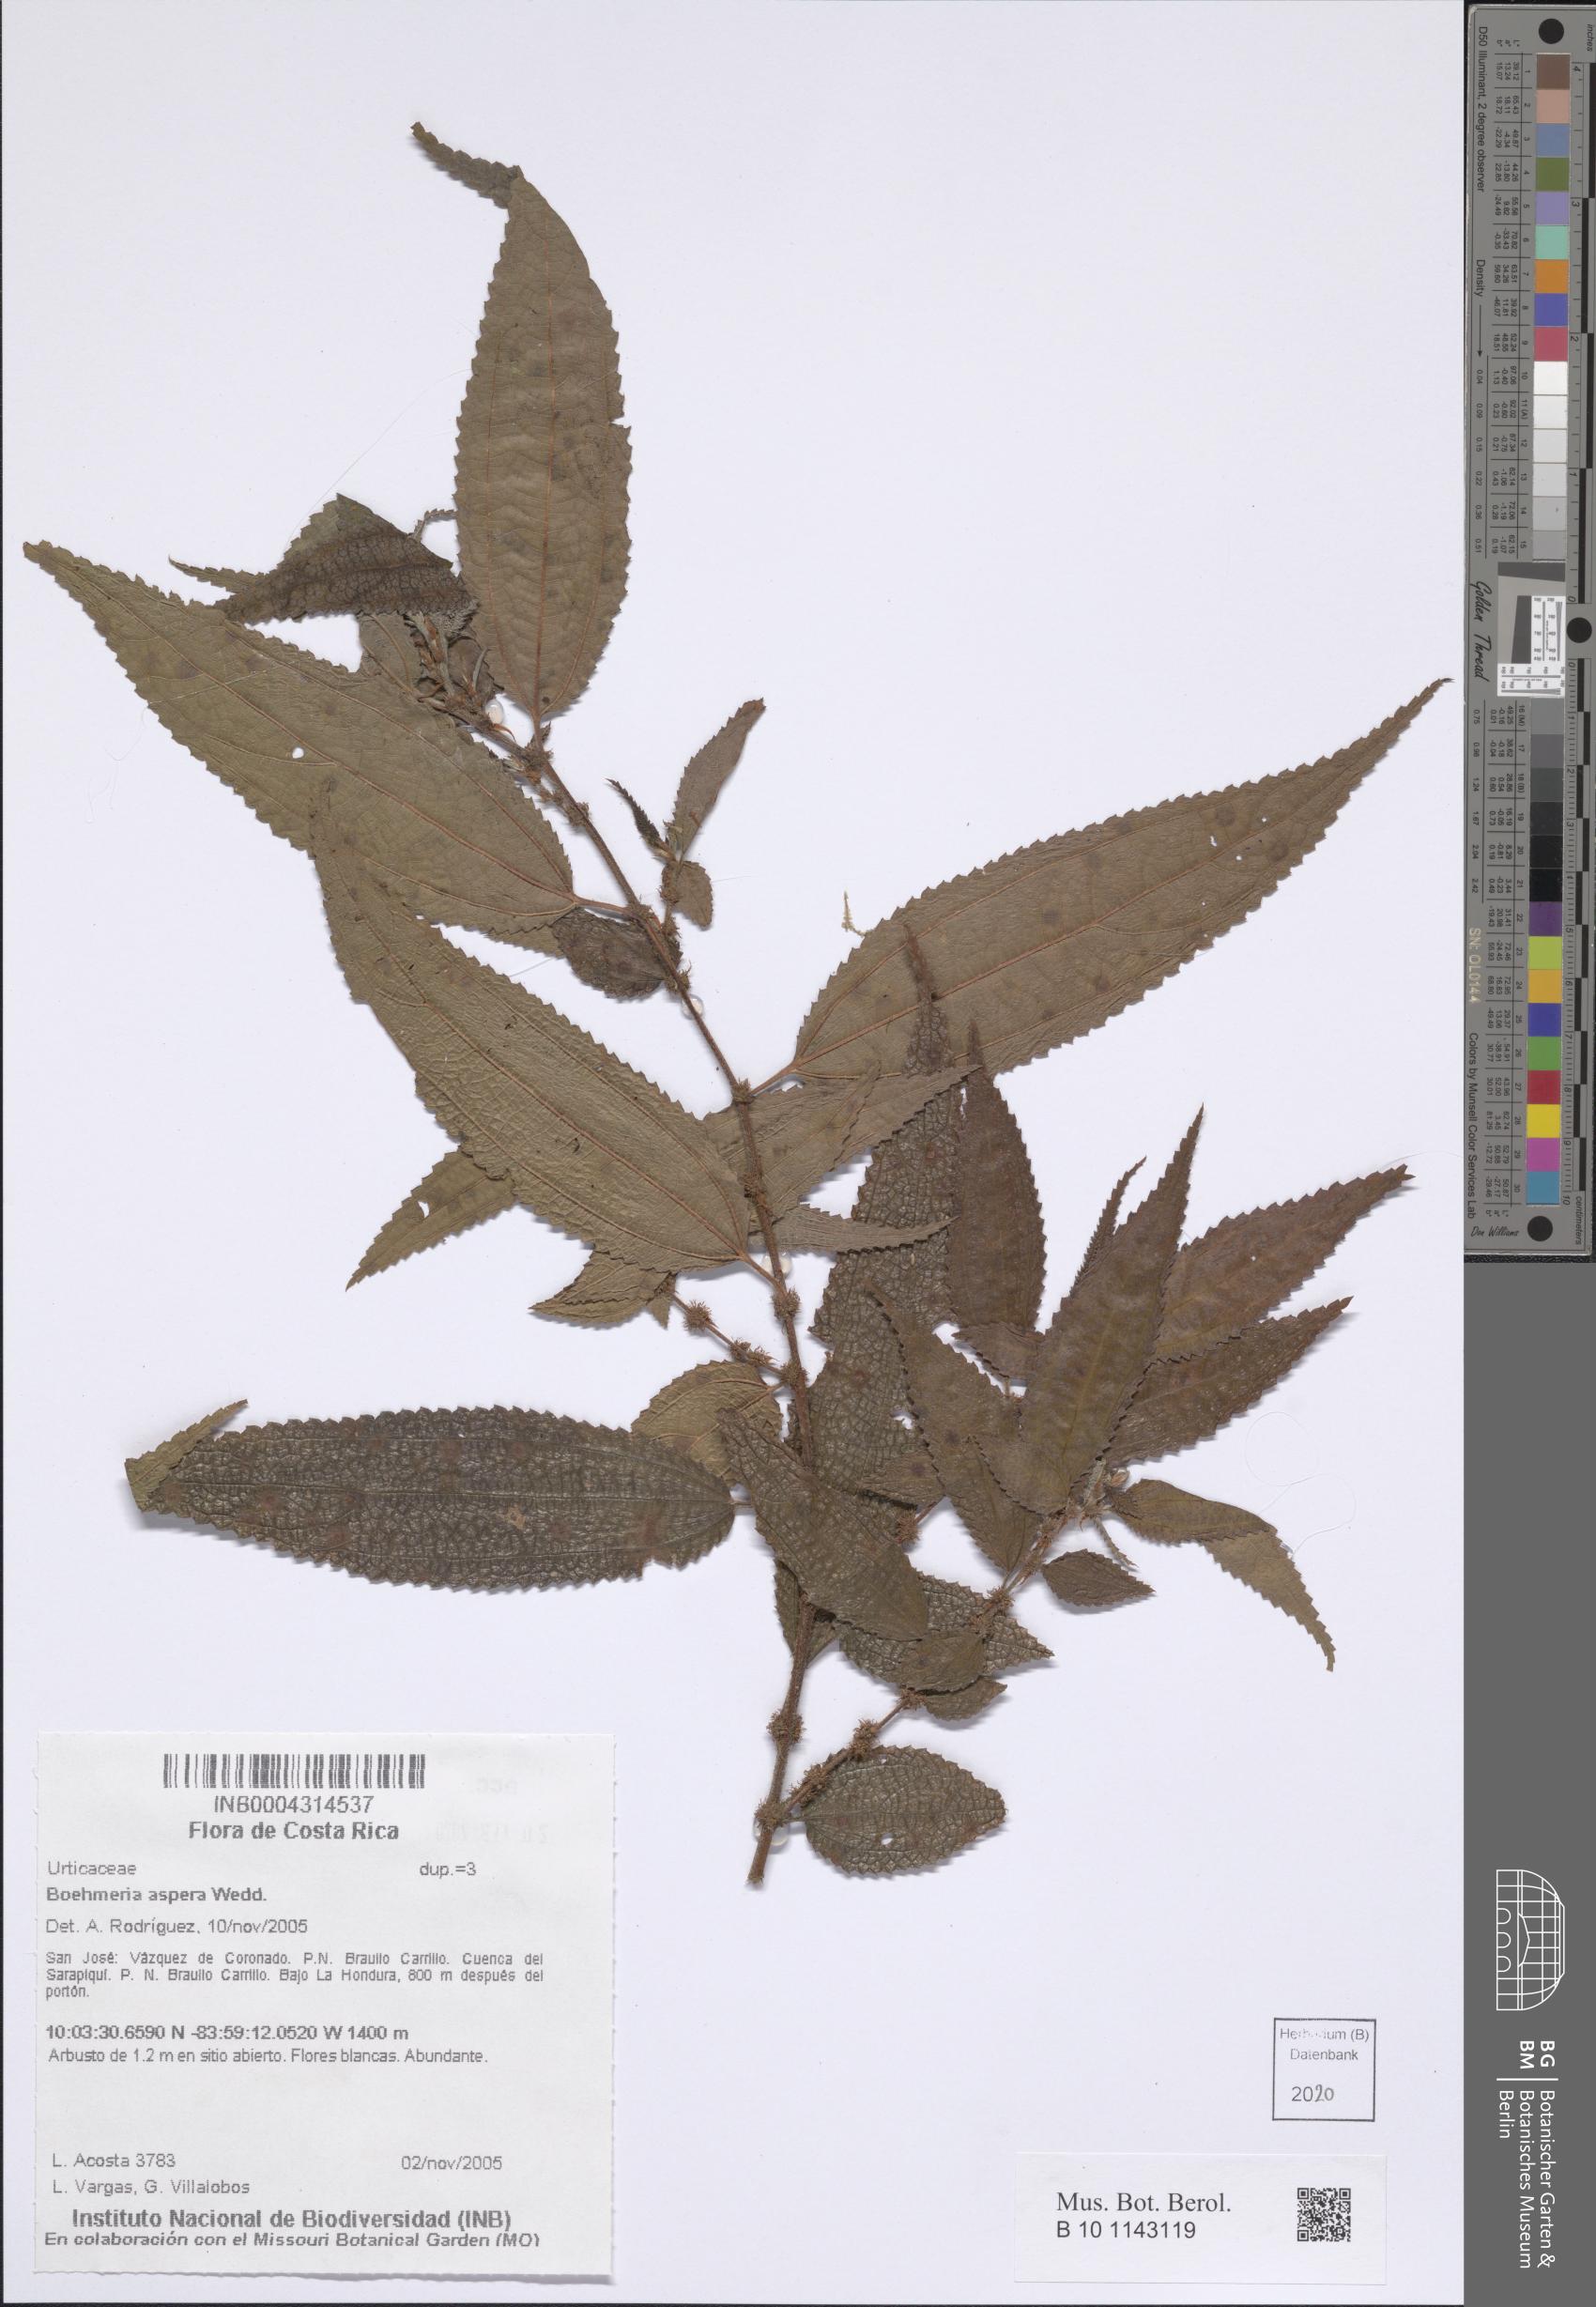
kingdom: Plantae
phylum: Tracheophyta
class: Magnoliopsida
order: Rosales
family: Urticaceae
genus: Boehmeria
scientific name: Boehmeria aspera
